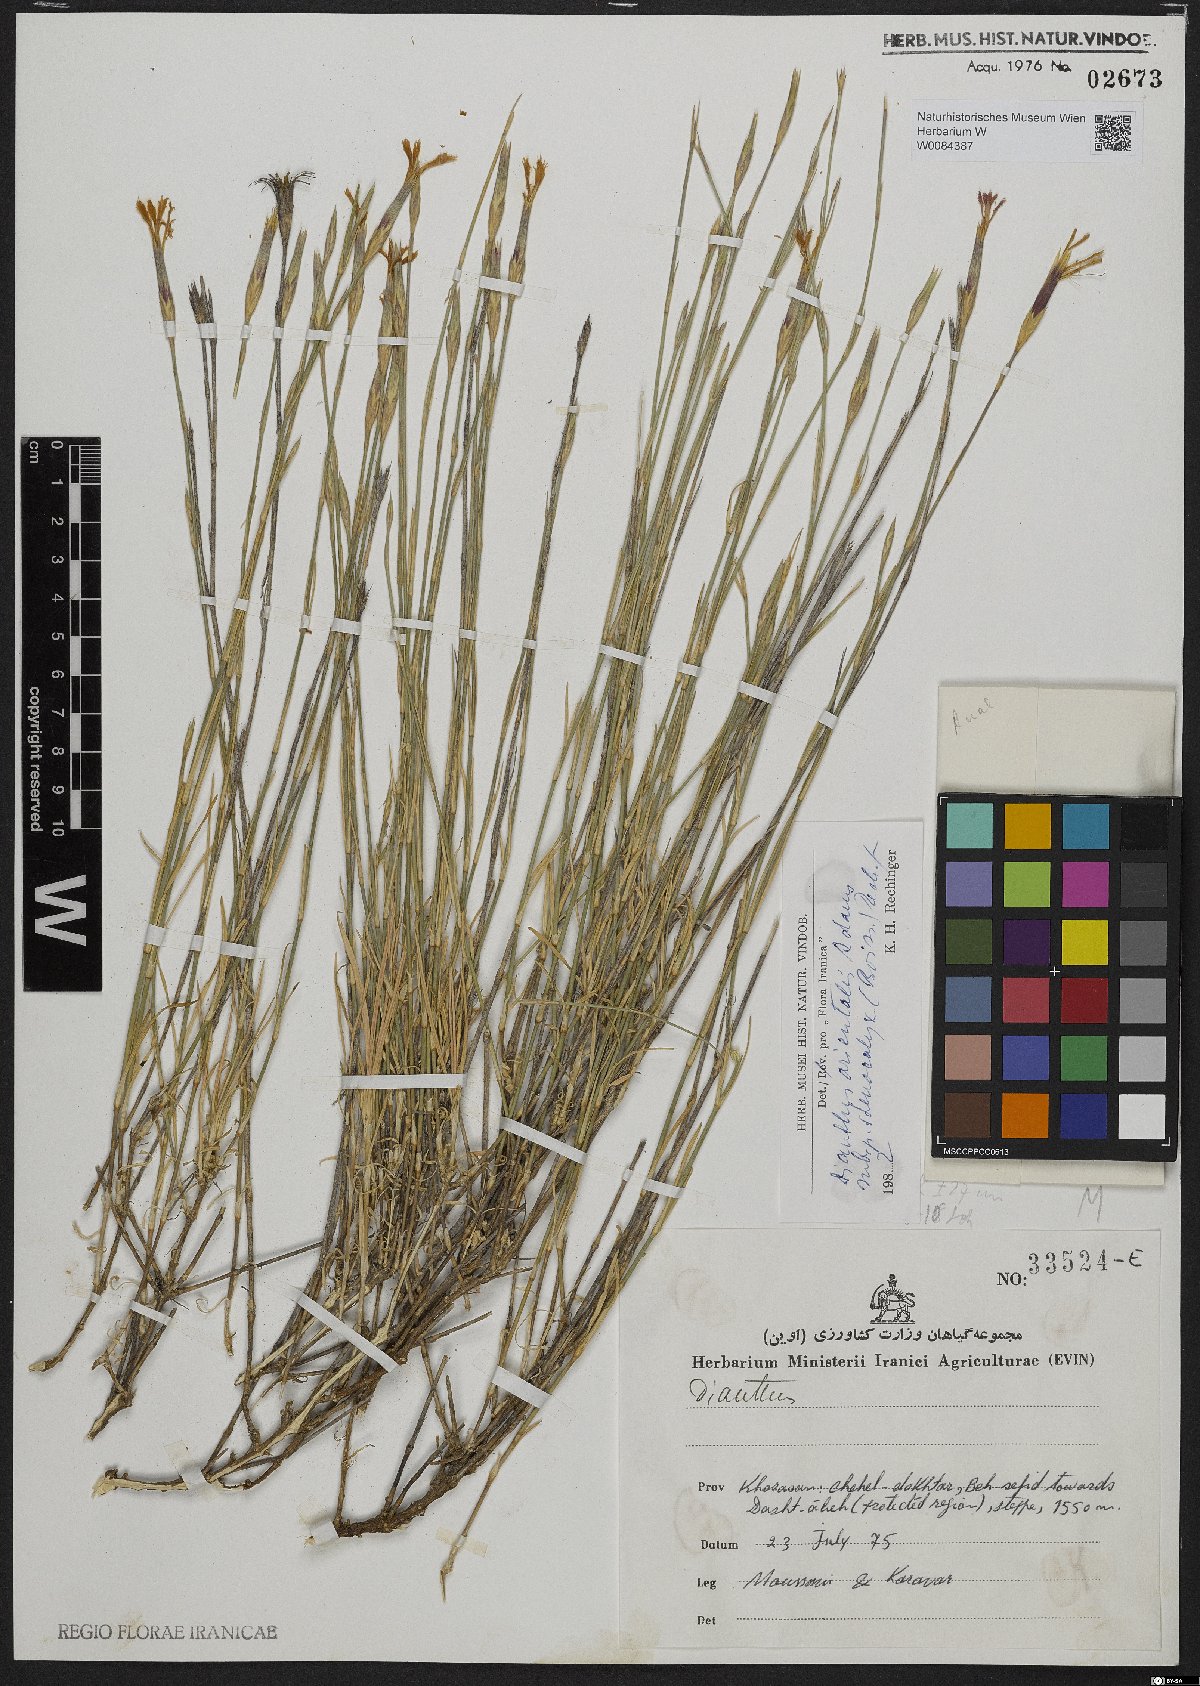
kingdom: Plantae
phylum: Tracheophyta
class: Magnoliopsida
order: Caryophyllales
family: Caryophyllaceae
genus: Dianthus
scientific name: Dianthus orientalis
